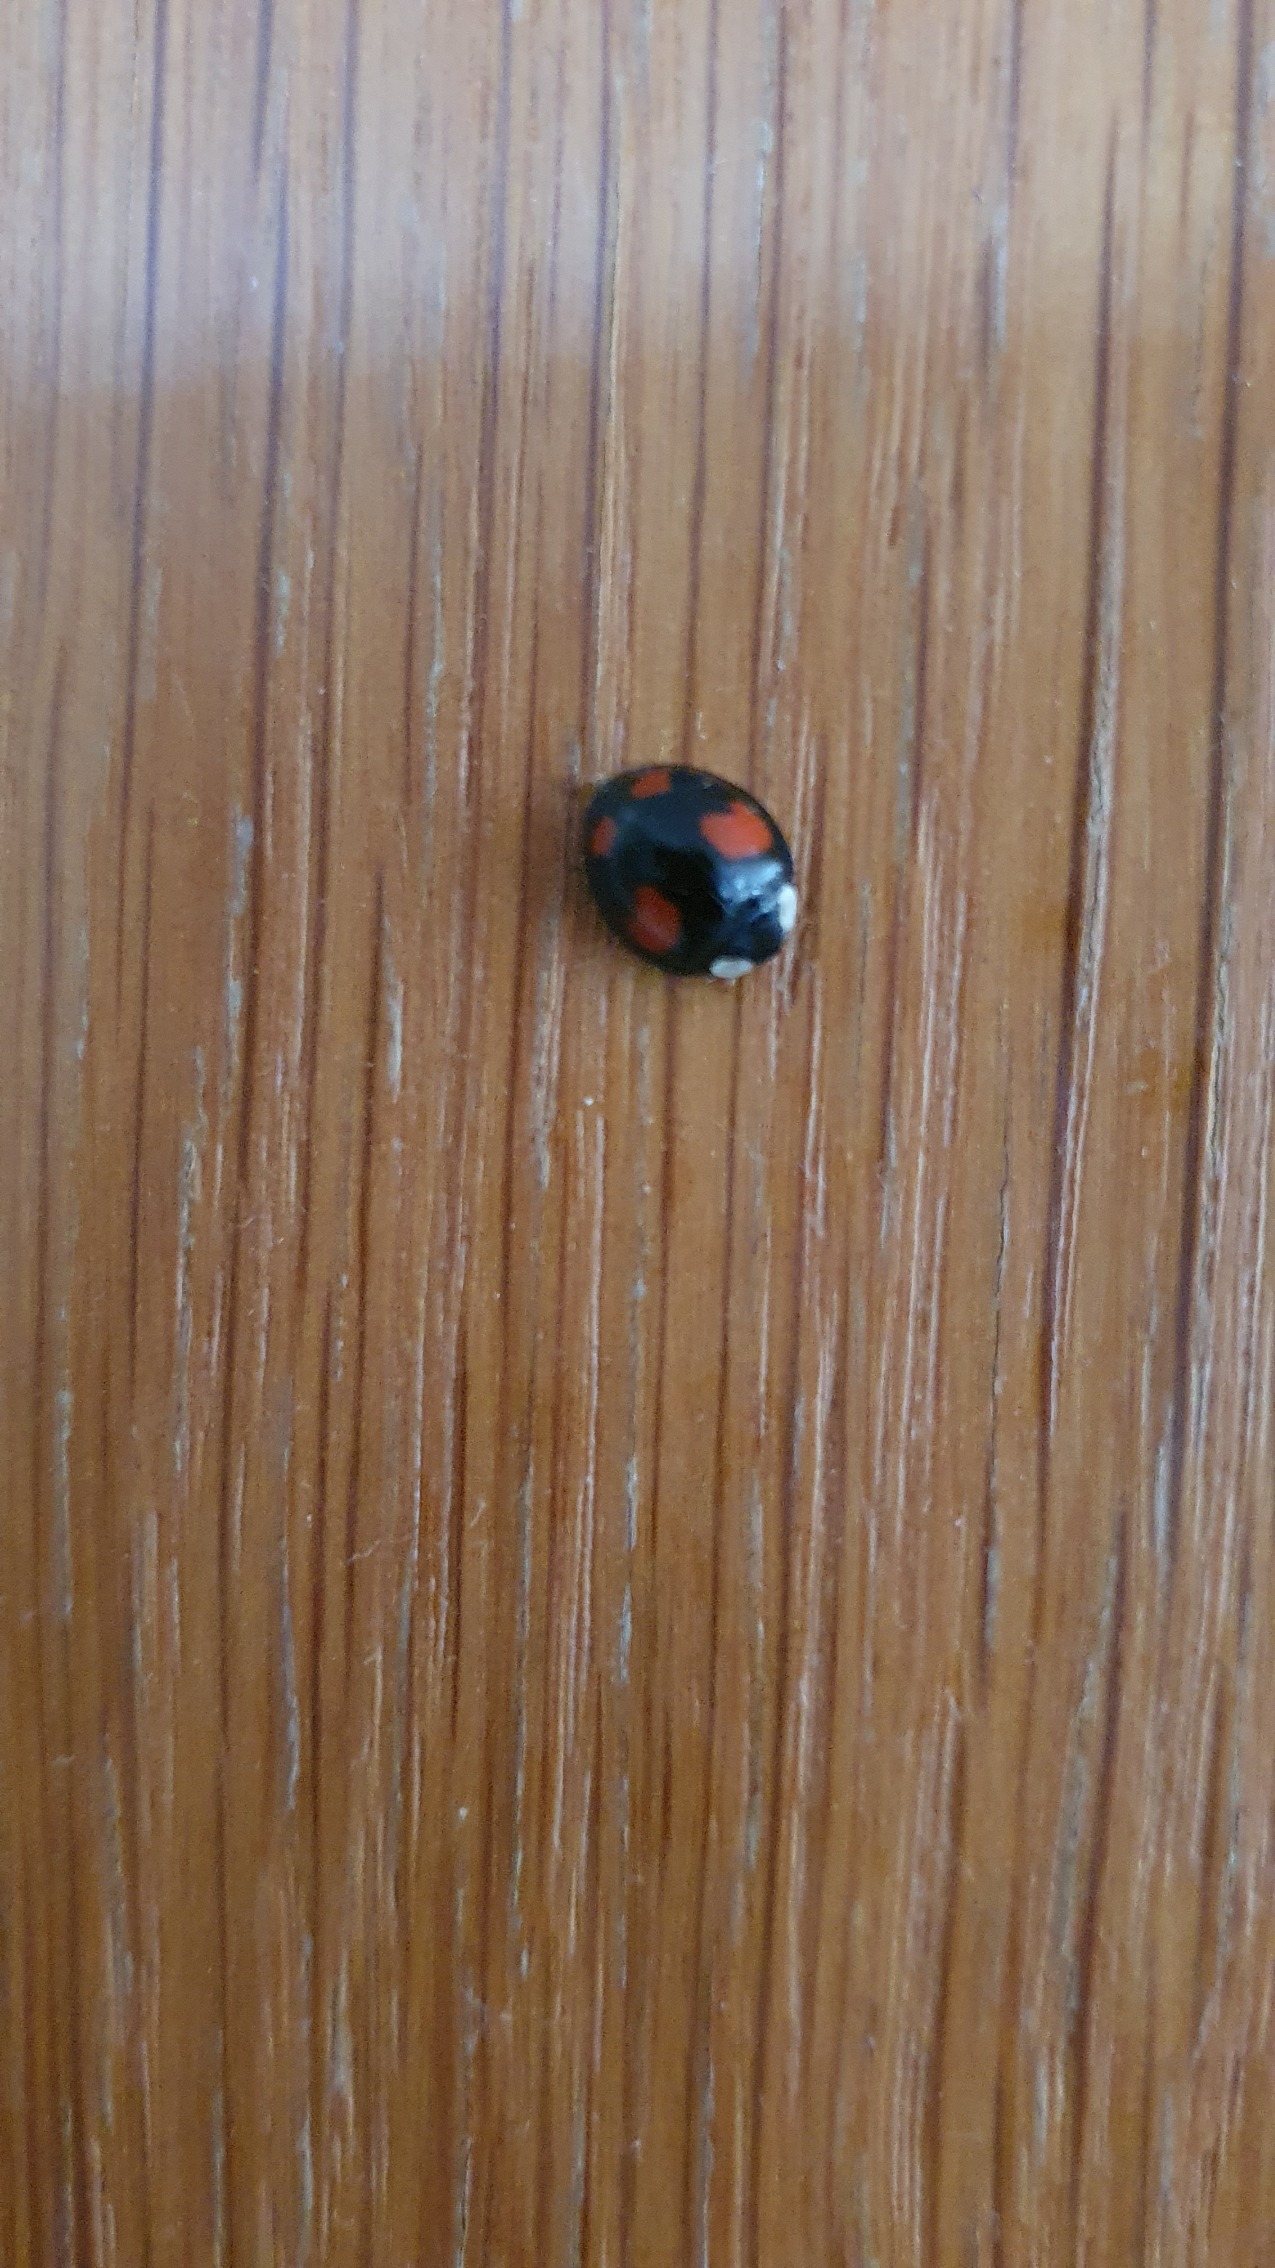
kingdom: Animalia
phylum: Arthropoda
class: Insecta
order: Coleoptera
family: Coccinellidae
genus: Harmonia
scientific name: Harmonia axyridis
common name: Harlekinmariehøne
